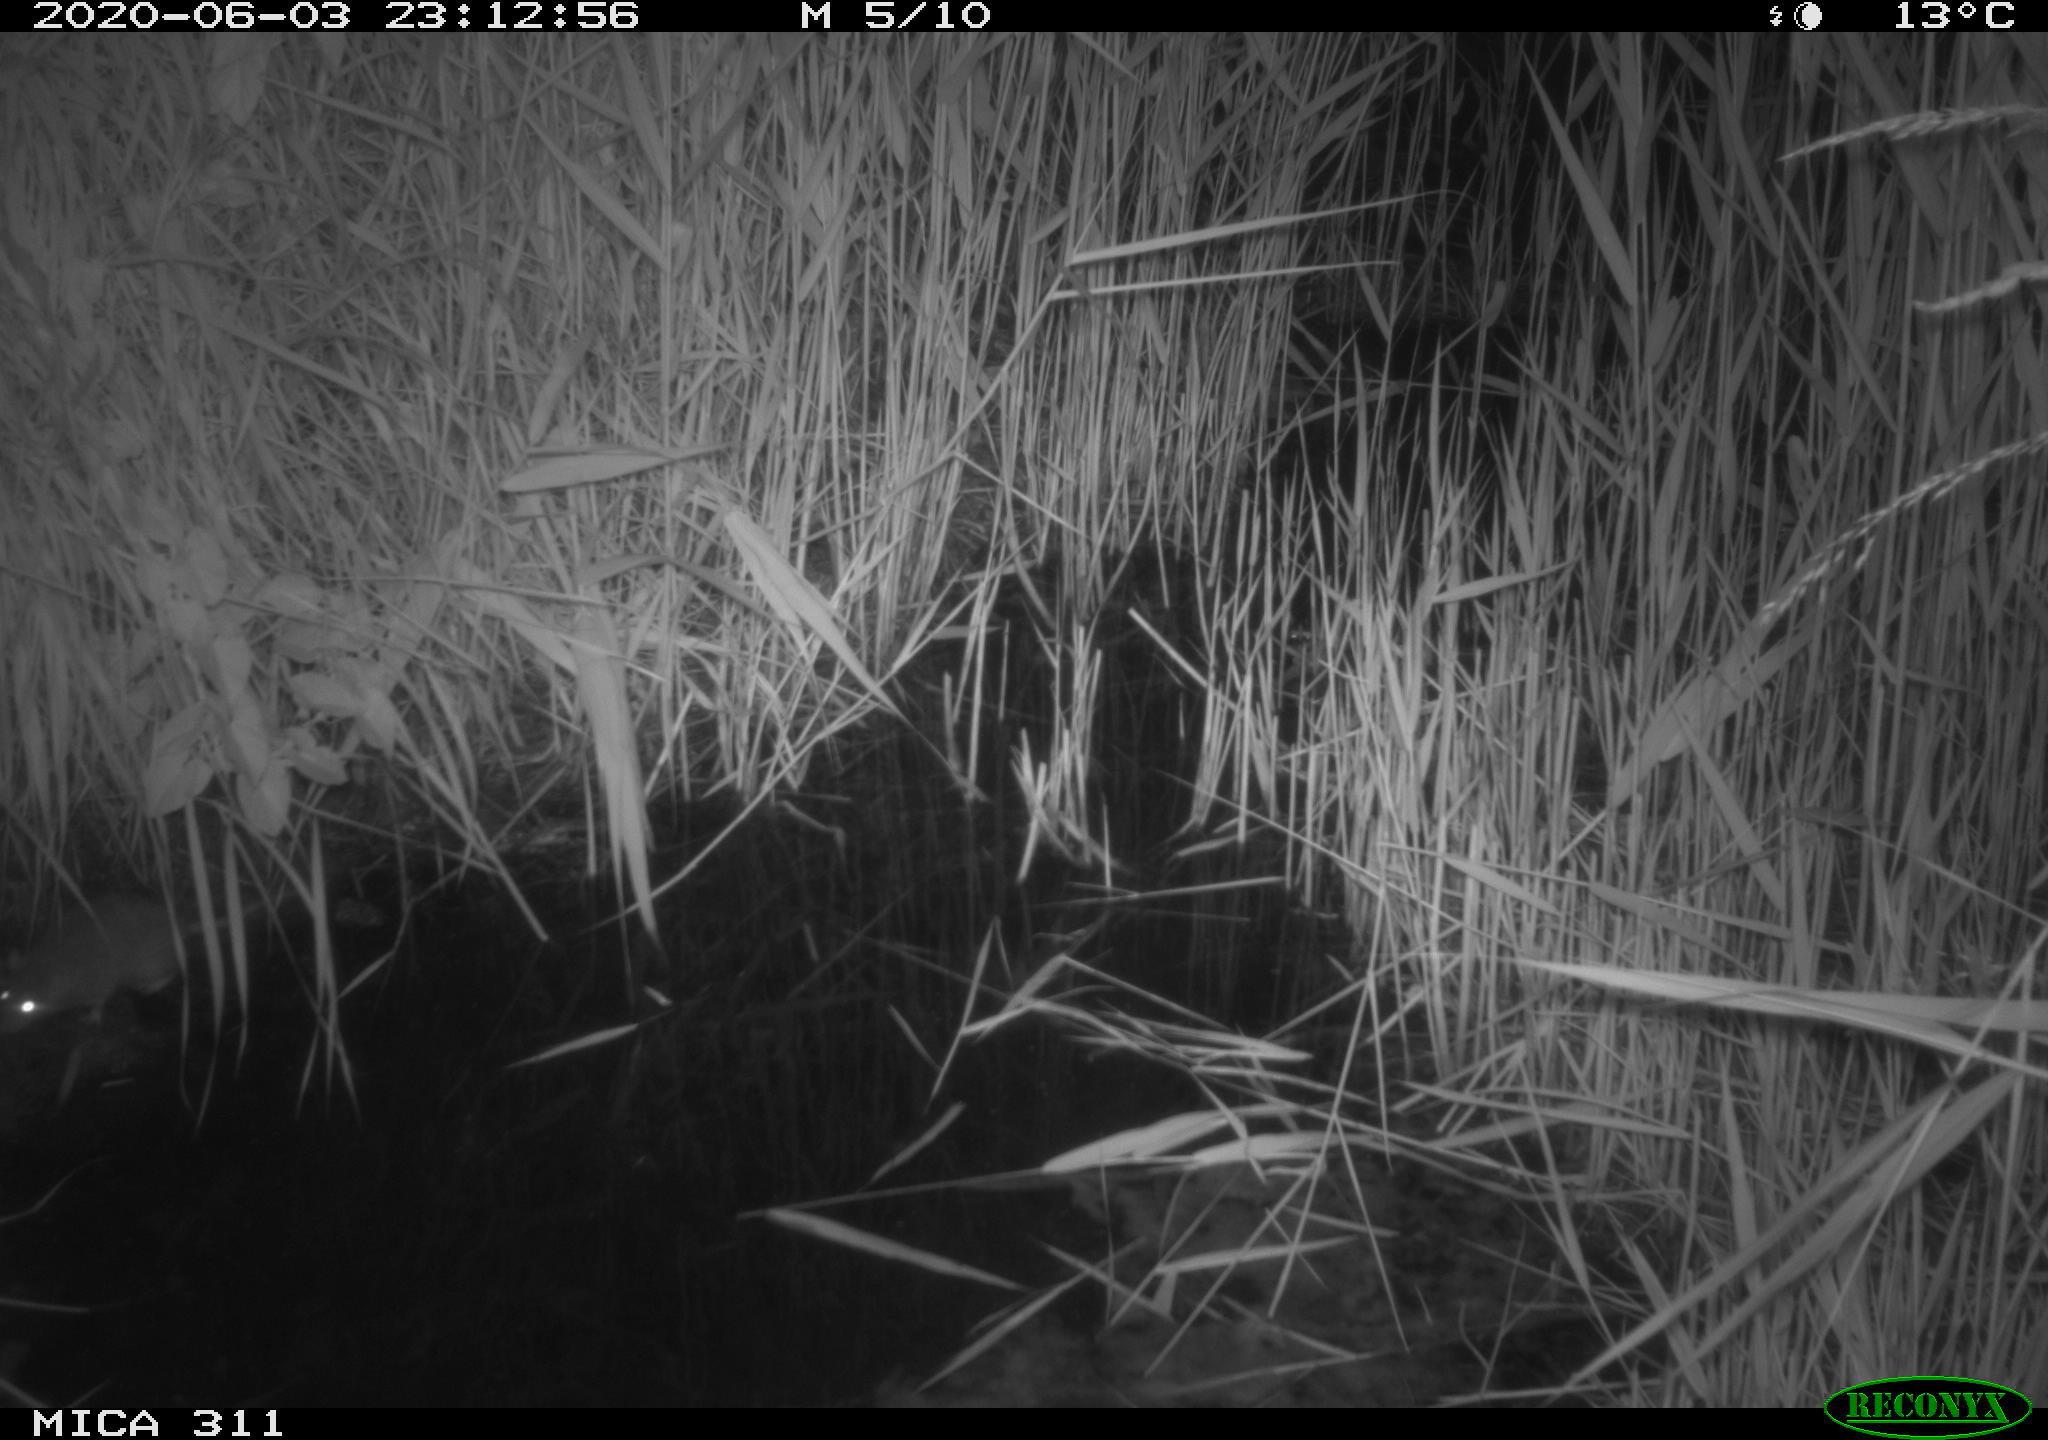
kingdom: Animalia
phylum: Chordata
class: Mammalia
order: Rodentia
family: Muridae
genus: Rattus
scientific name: Rattus norvegicus
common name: Brown rat
